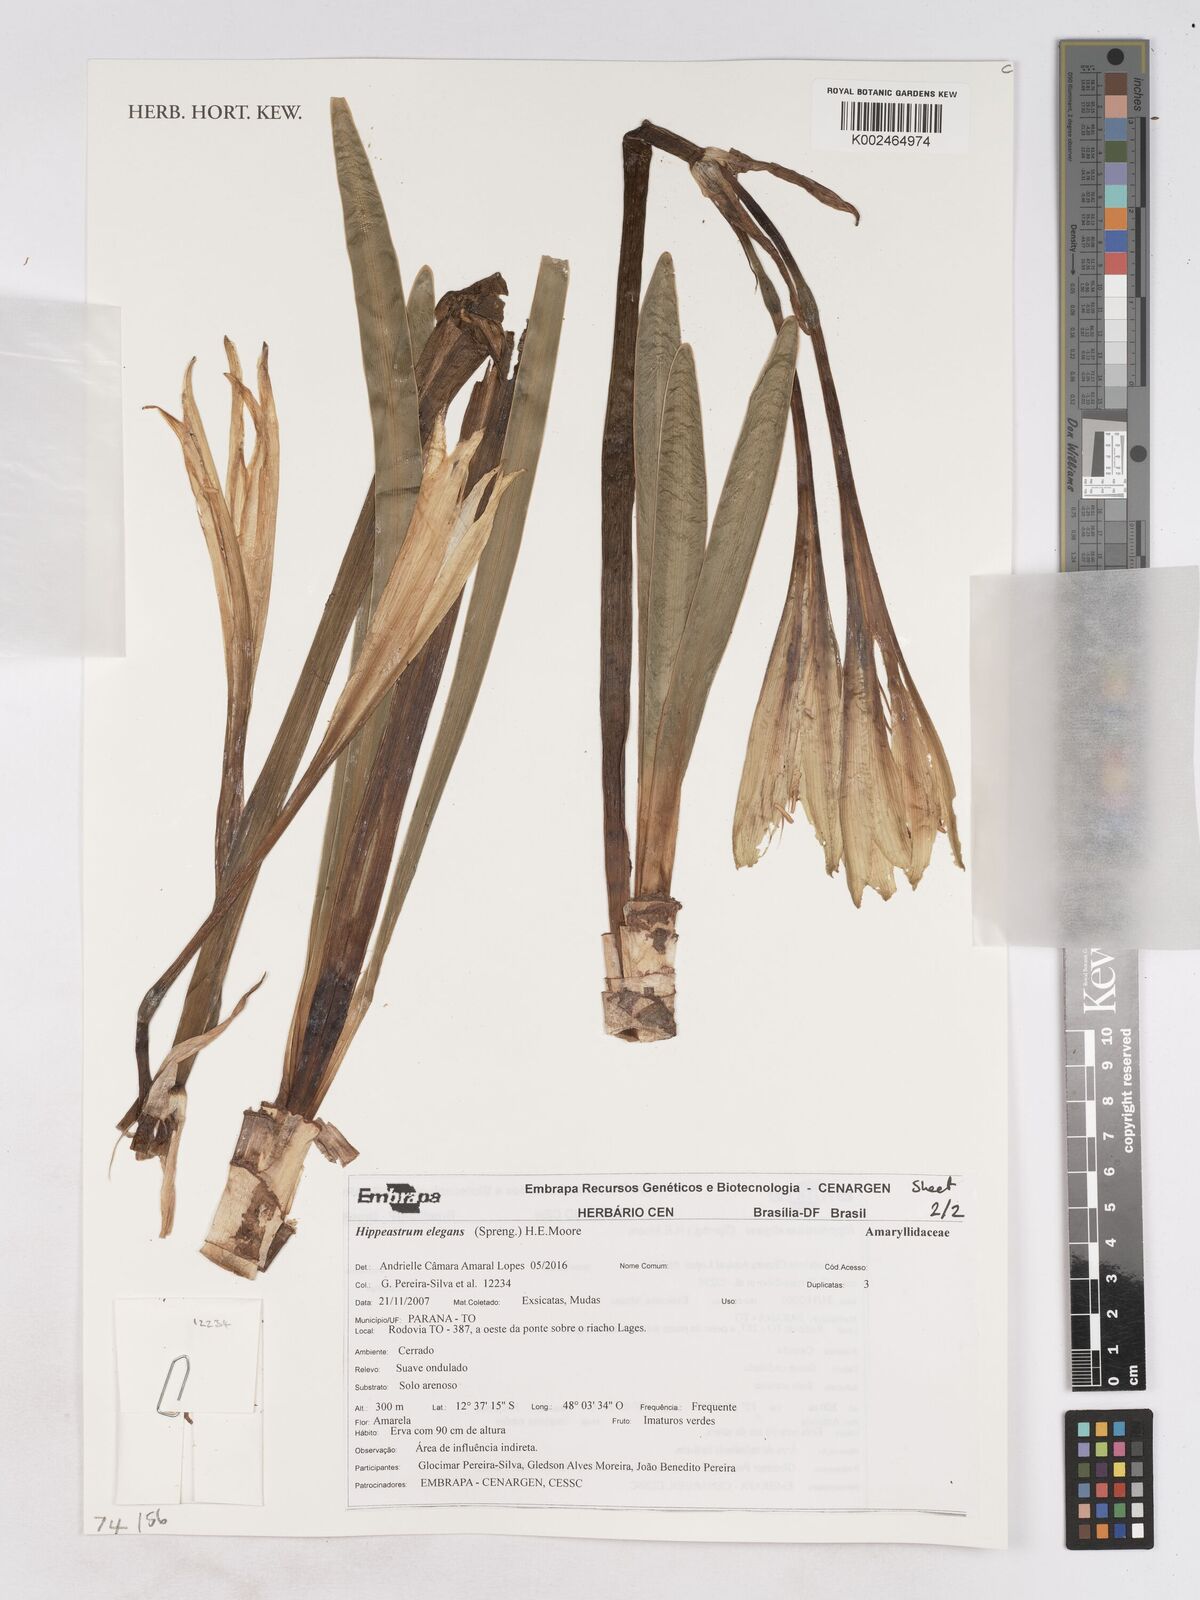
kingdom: Plantae
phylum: Tracheophyta
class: Liliopsida
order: Asparagales
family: Amaryllidaceae
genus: Hippeastrum
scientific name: Hippeastrum elegans
